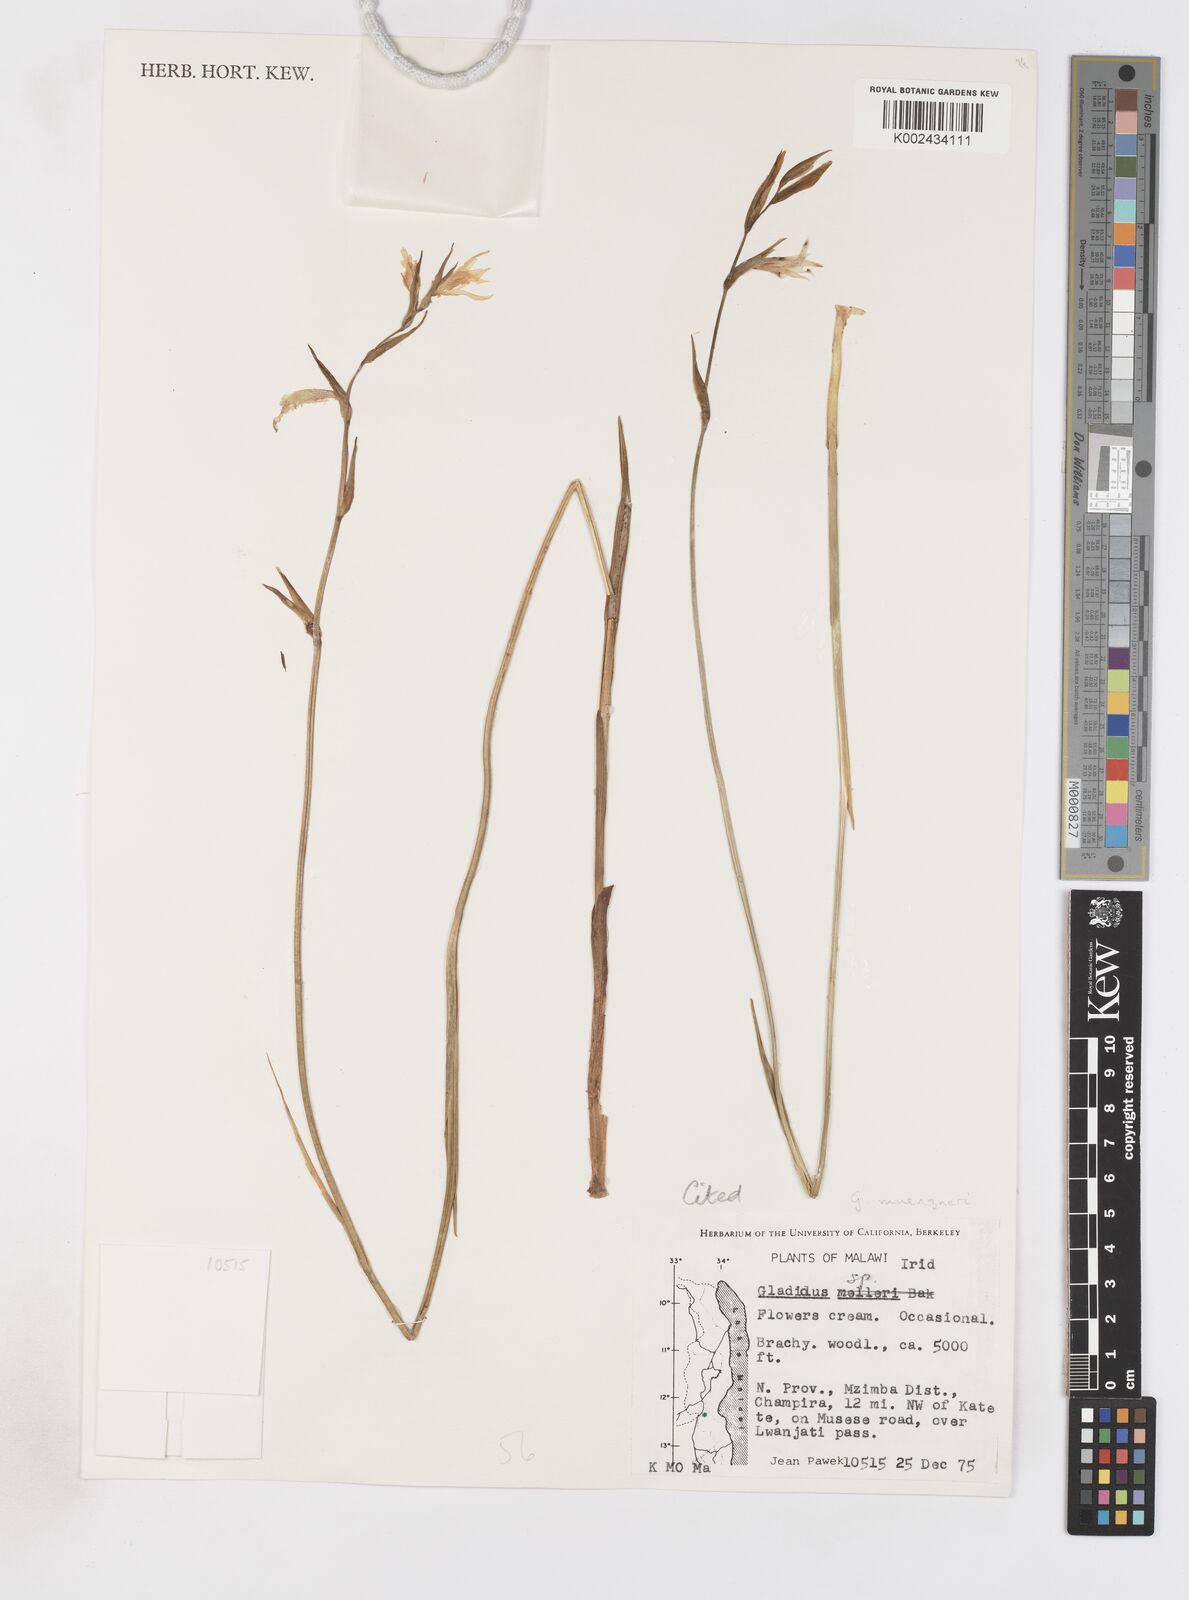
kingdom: Plantae
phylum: Tracheophyta
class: Liliopsida
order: Asparagales
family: Iridaceae
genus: Gladiolus
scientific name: Gladiolus muenzneri
